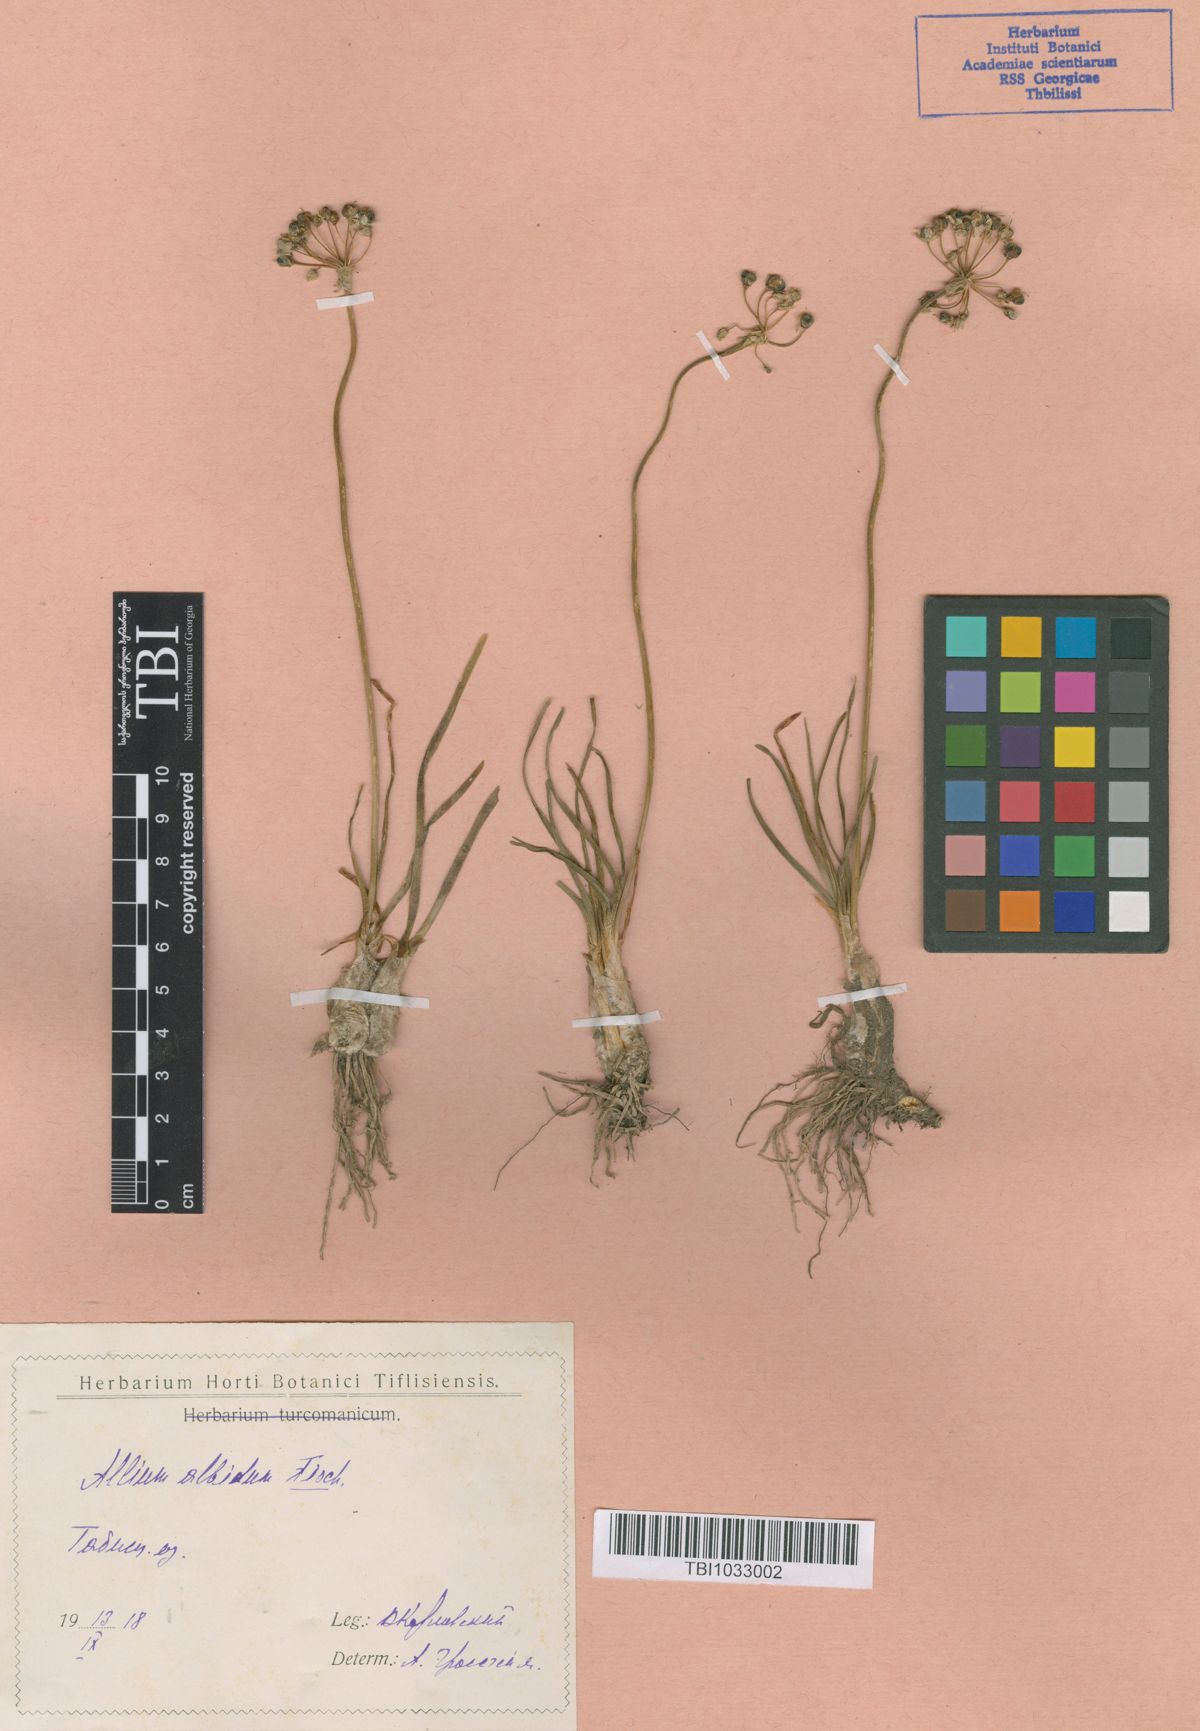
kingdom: Plantae
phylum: Tracheophyta
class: Liliopsida
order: Asparagales
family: Amaryllidaceae
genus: Allium
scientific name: Allium denudatum
